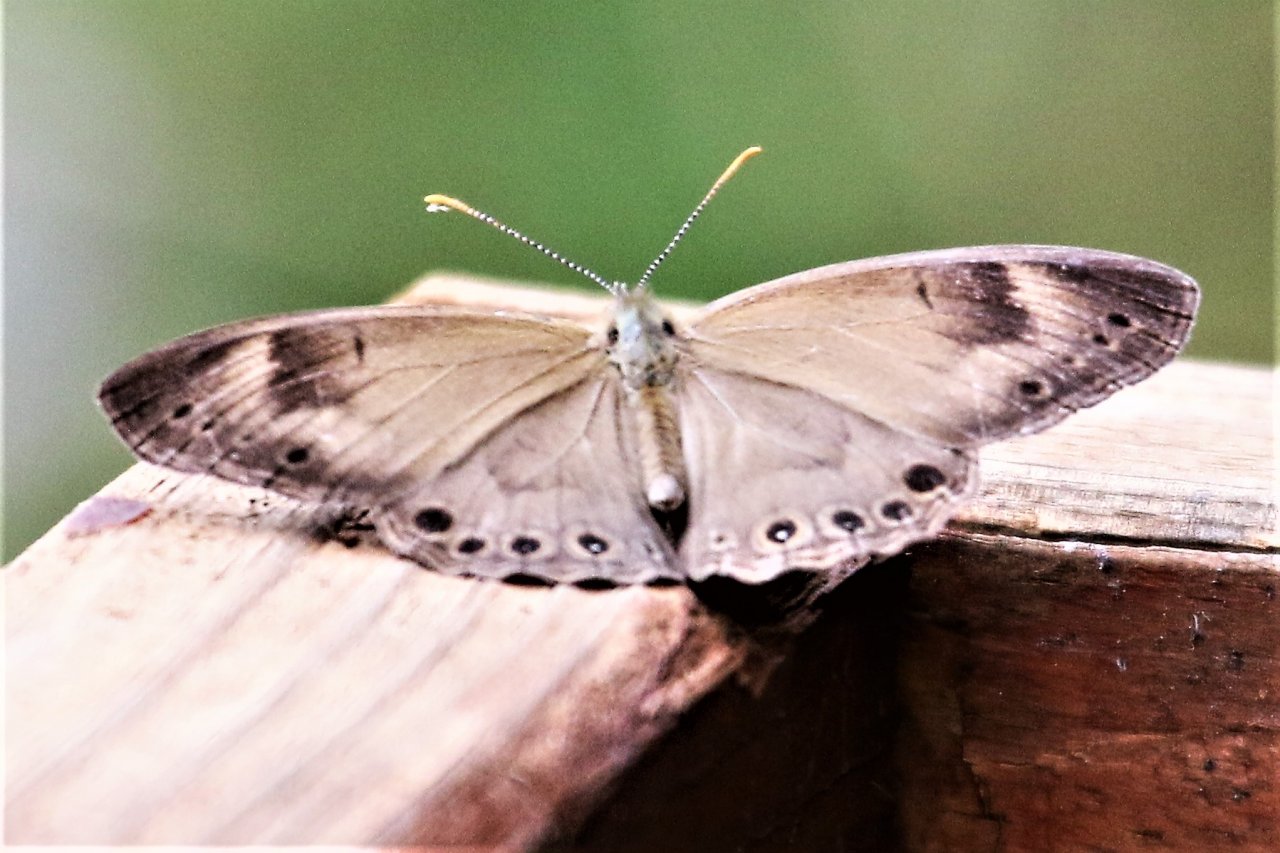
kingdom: Animalia
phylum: Arthropoda
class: Insecta
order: Lepidoptera
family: Nymphalidae
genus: Lethe
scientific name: Lethe eurydice
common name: Appalachian Eyed Brown
